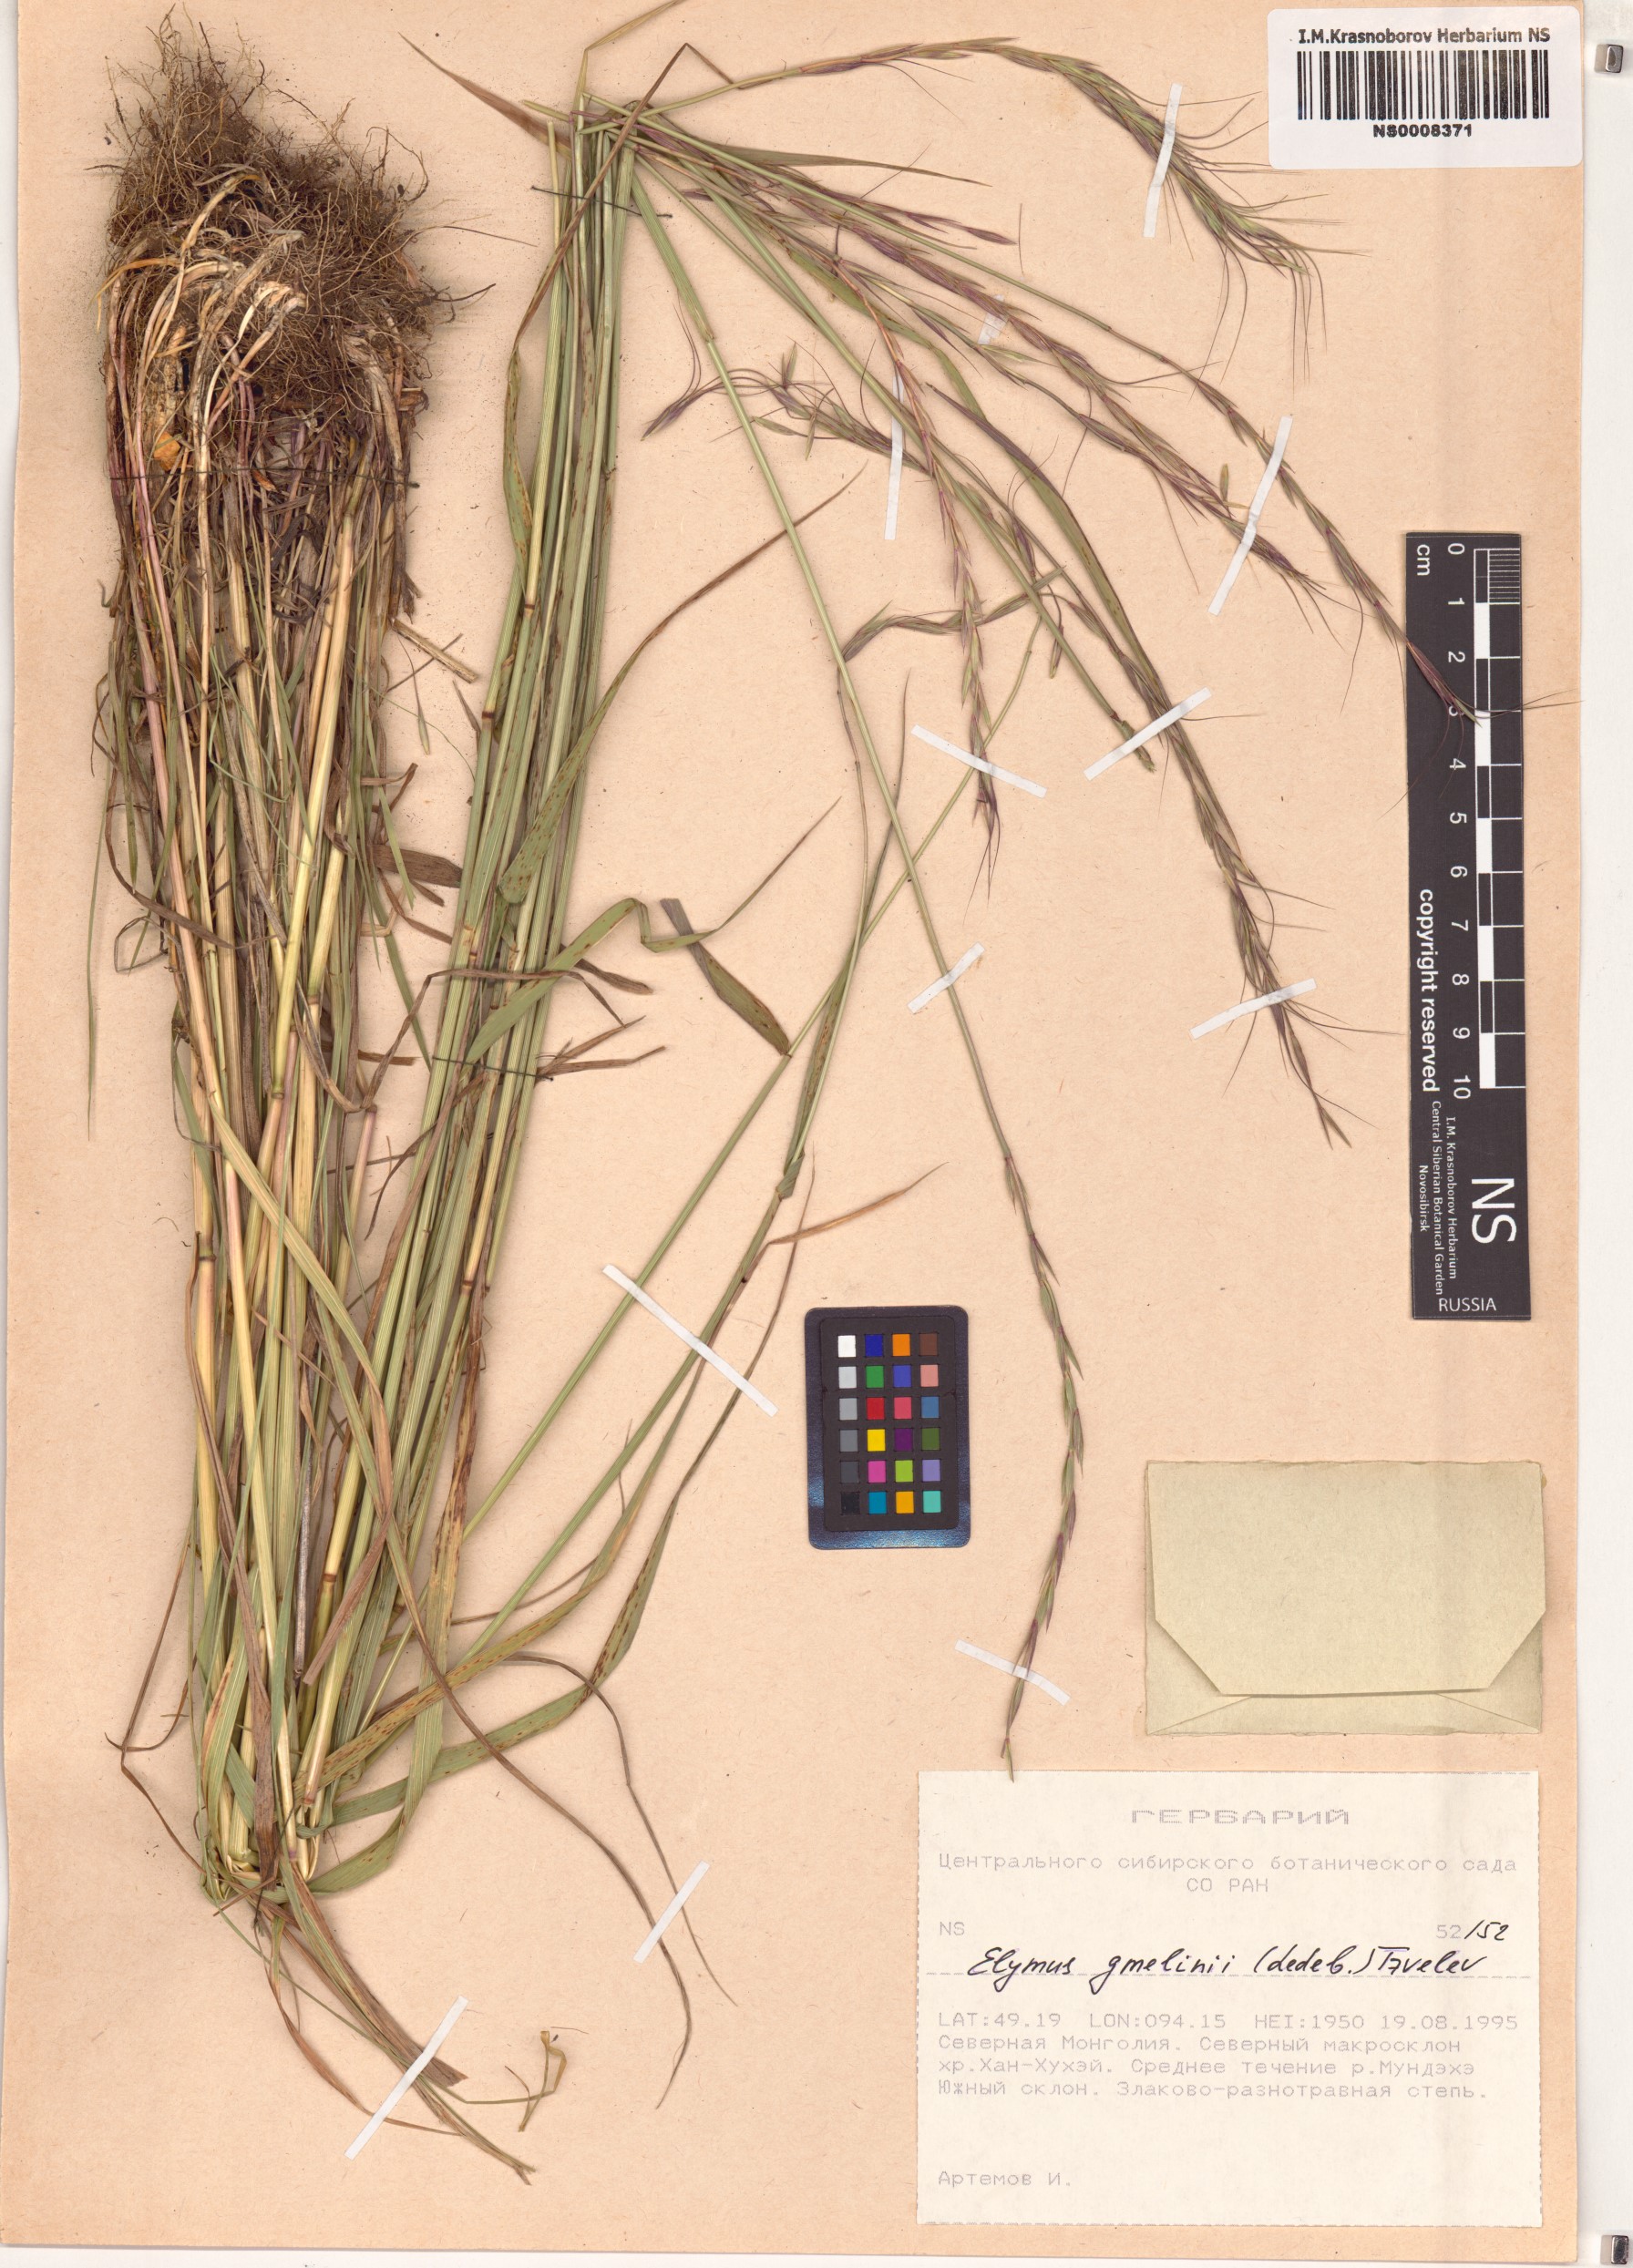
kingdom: Plantae
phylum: Tracheophyta
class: Liliopsida
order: Poales
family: Poaceae
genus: Elymus
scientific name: Elymus gmelinii
